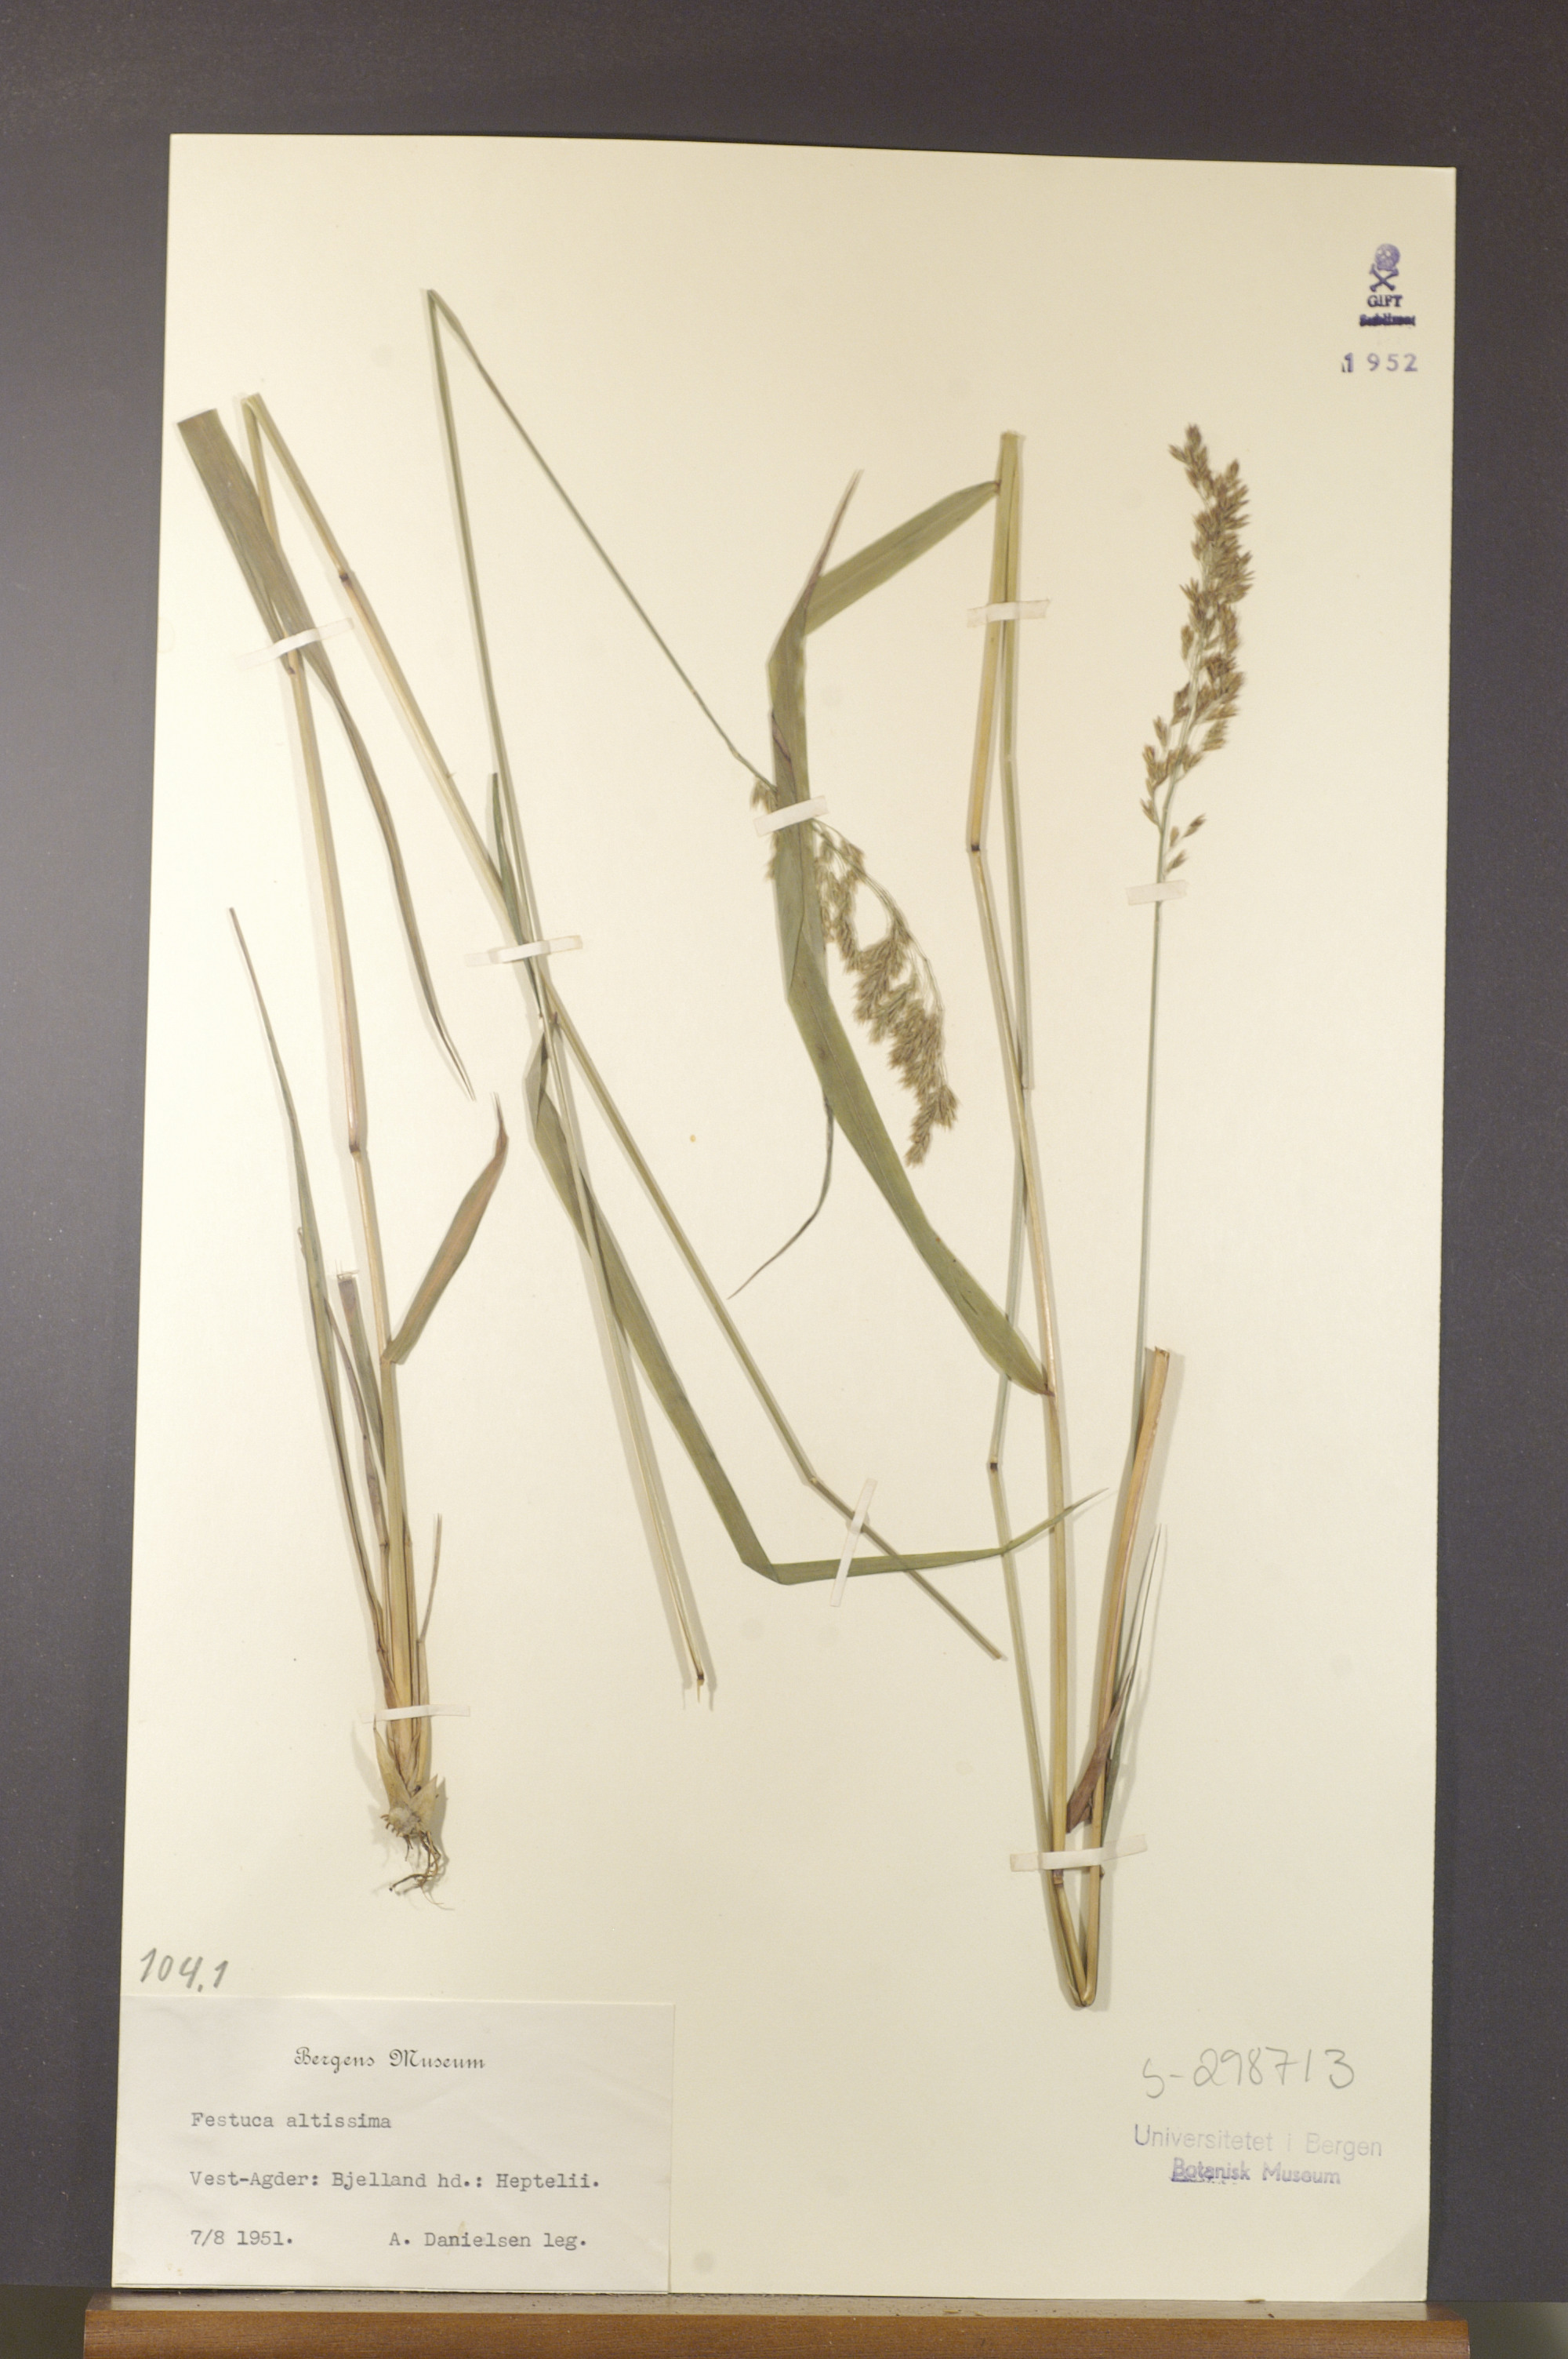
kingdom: Plantae
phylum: Tracheophyta
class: Liliopsida
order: Poales
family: Poaceae
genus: Festuca
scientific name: Festuca altissima
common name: Wood fescue
